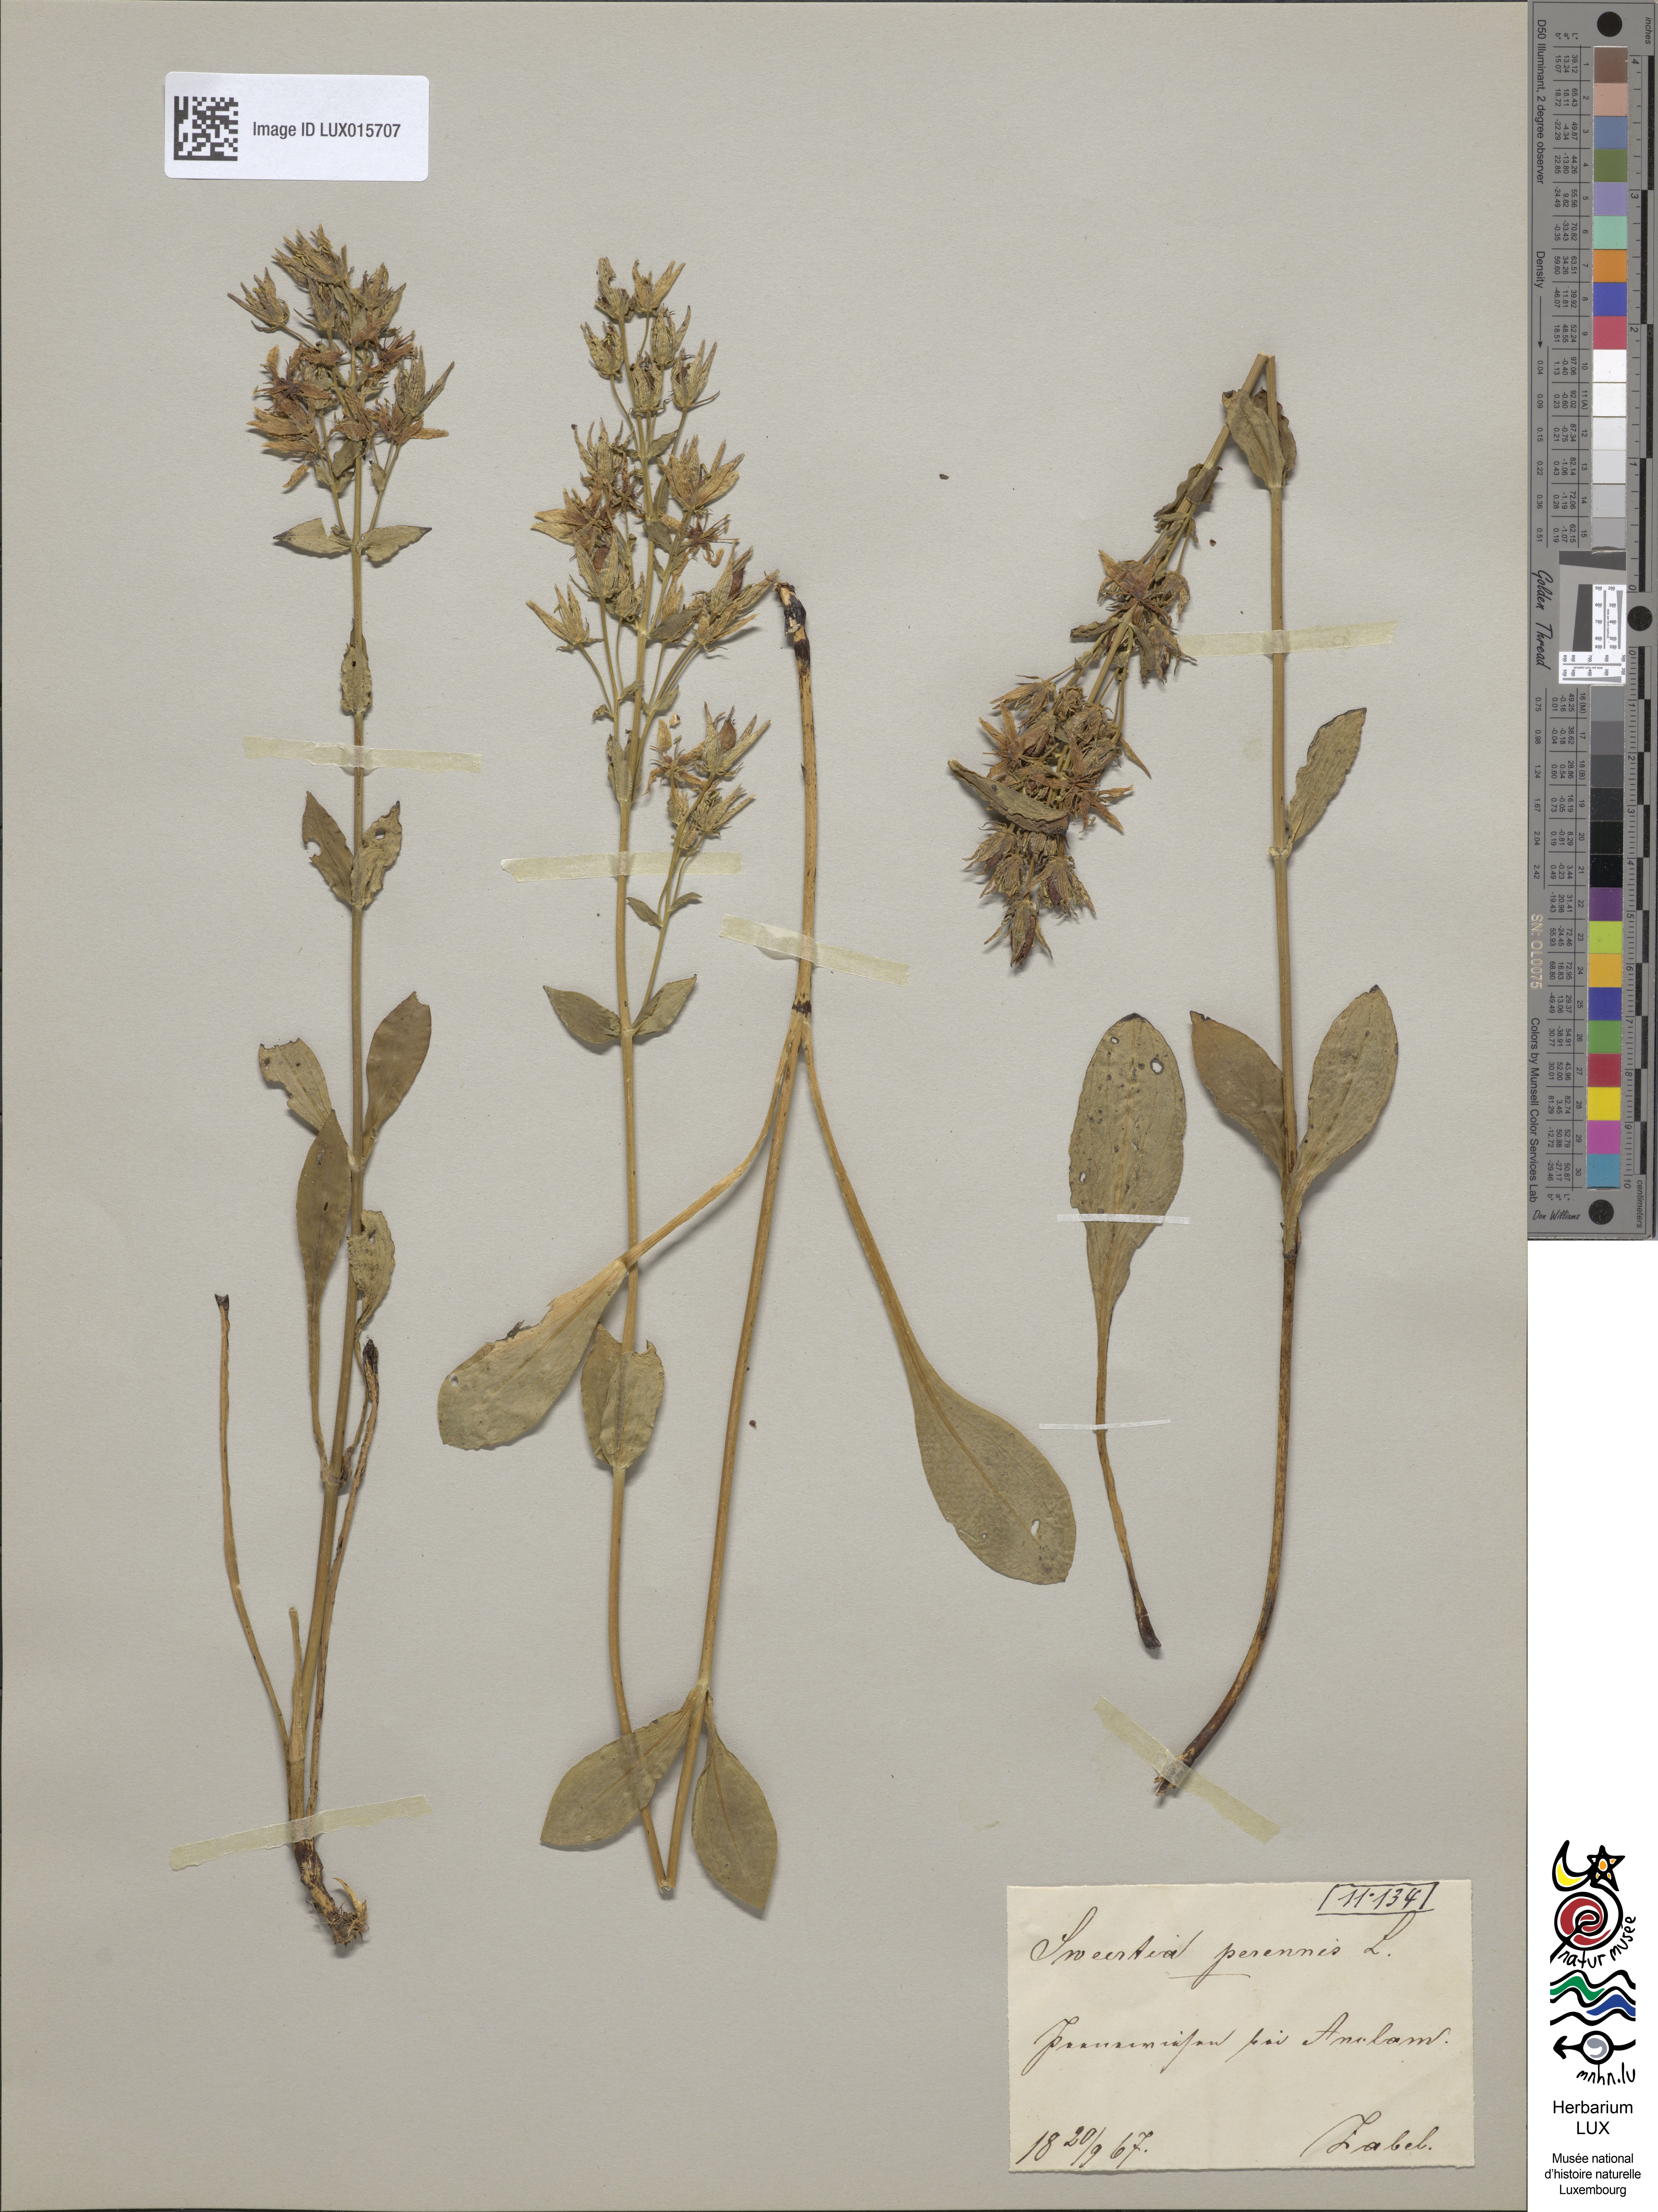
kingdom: Plantae
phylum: Tracheophyta
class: Magnoliopsida
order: Gentianales
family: Gentianaceae
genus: Swertia
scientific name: Swertia perennis
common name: Alpine bog swertia
